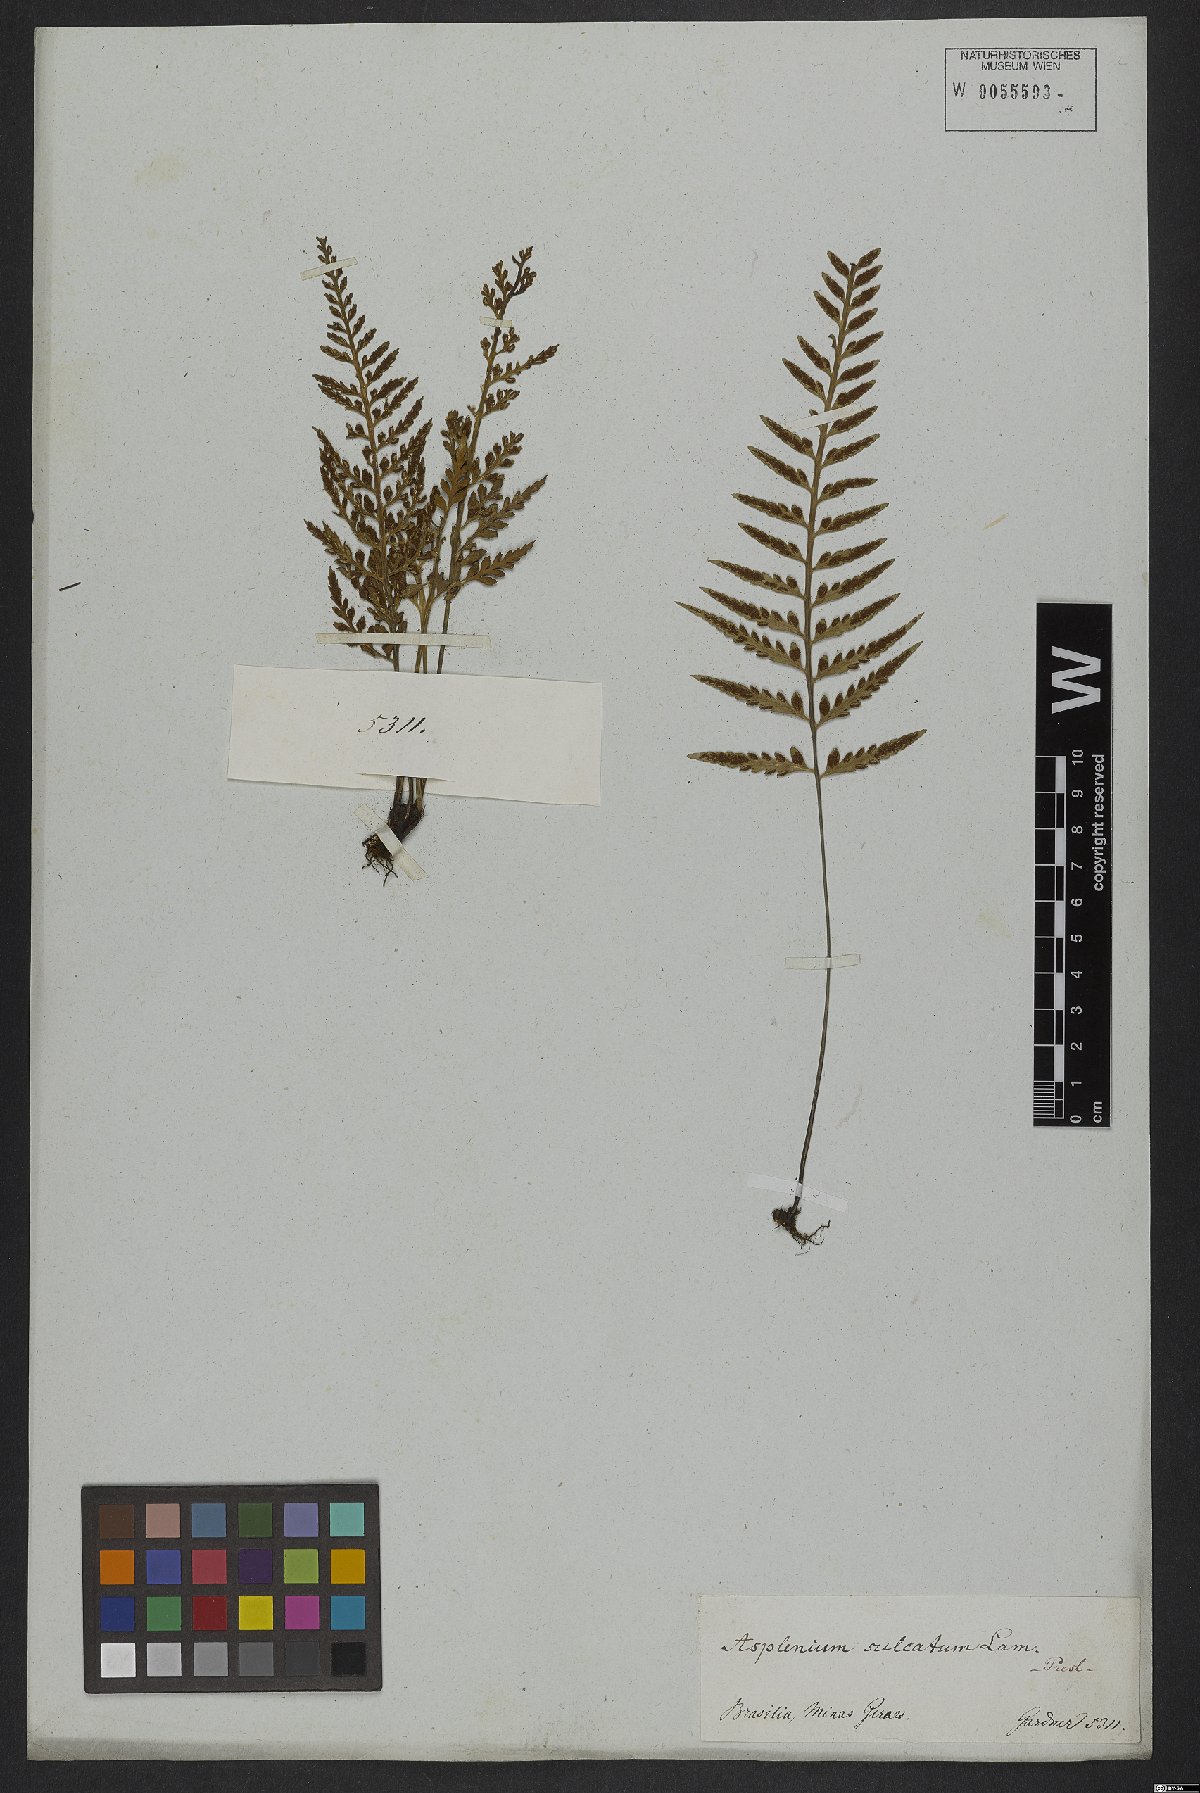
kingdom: Plantae
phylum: Tracheophyta
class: Polypodiopsida
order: Polypodiales
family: Aspleniaceae
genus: Asplenium
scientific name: Asplenium sulcatum
